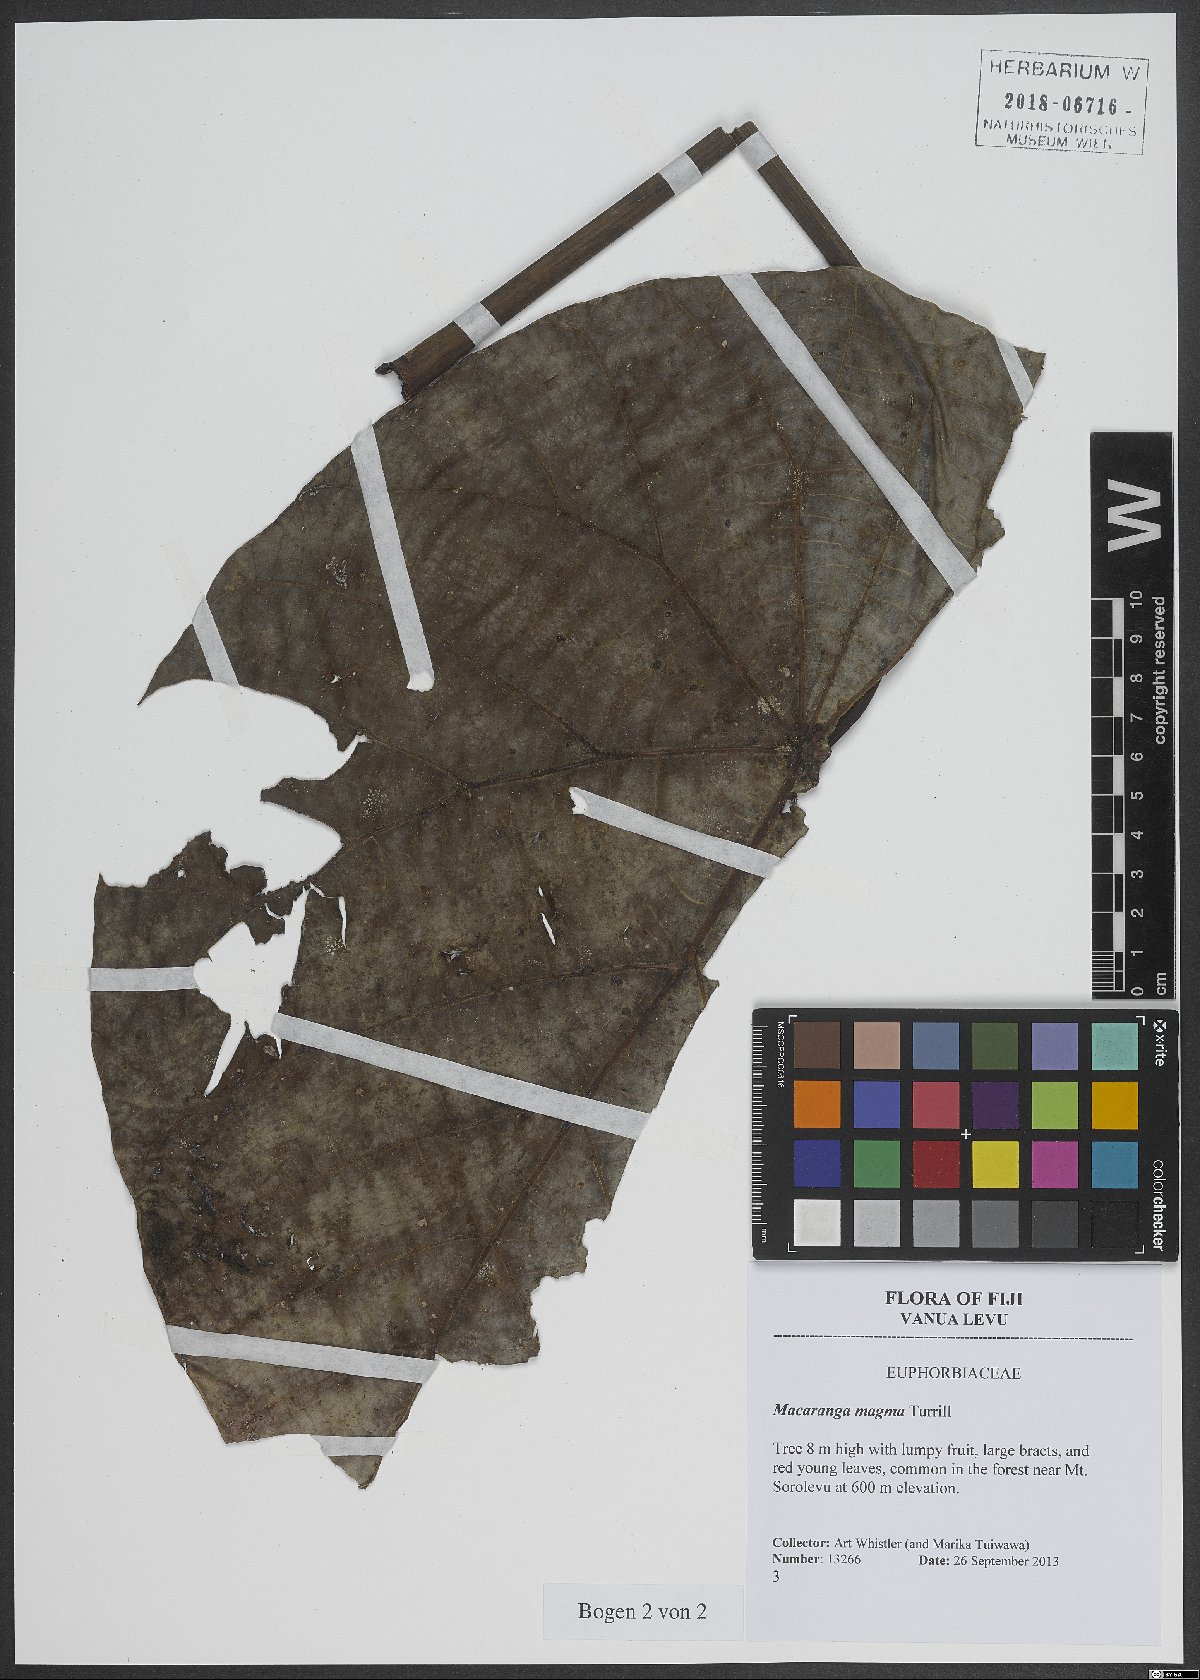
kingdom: Plantae
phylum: Tracheophyta
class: Magnoliopsida
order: Malpighiales
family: Euphorbiaceae
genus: Macaranga
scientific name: Macaranga magna
